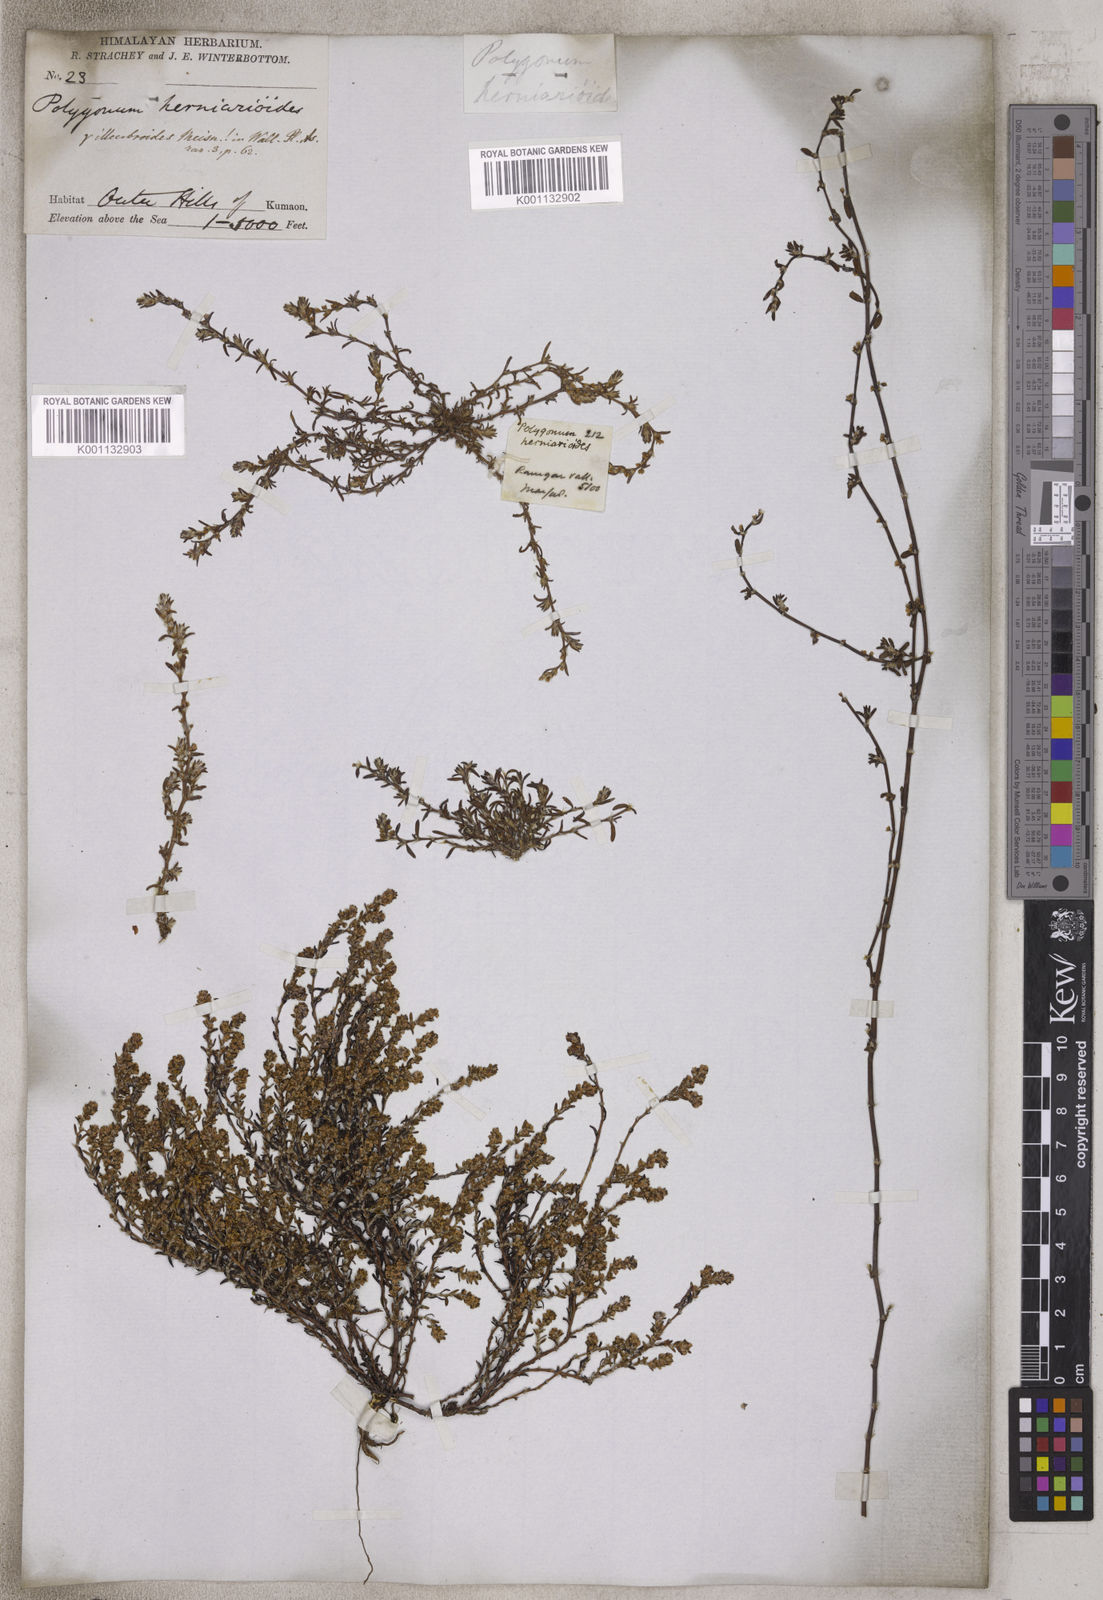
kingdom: Plantae
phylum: Tracheophyta
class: Magnoliopsida
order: Caryophyllales
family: Polygonaceae
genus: Polygonum
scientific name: Polygonum plebeium
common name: Common knotweed
